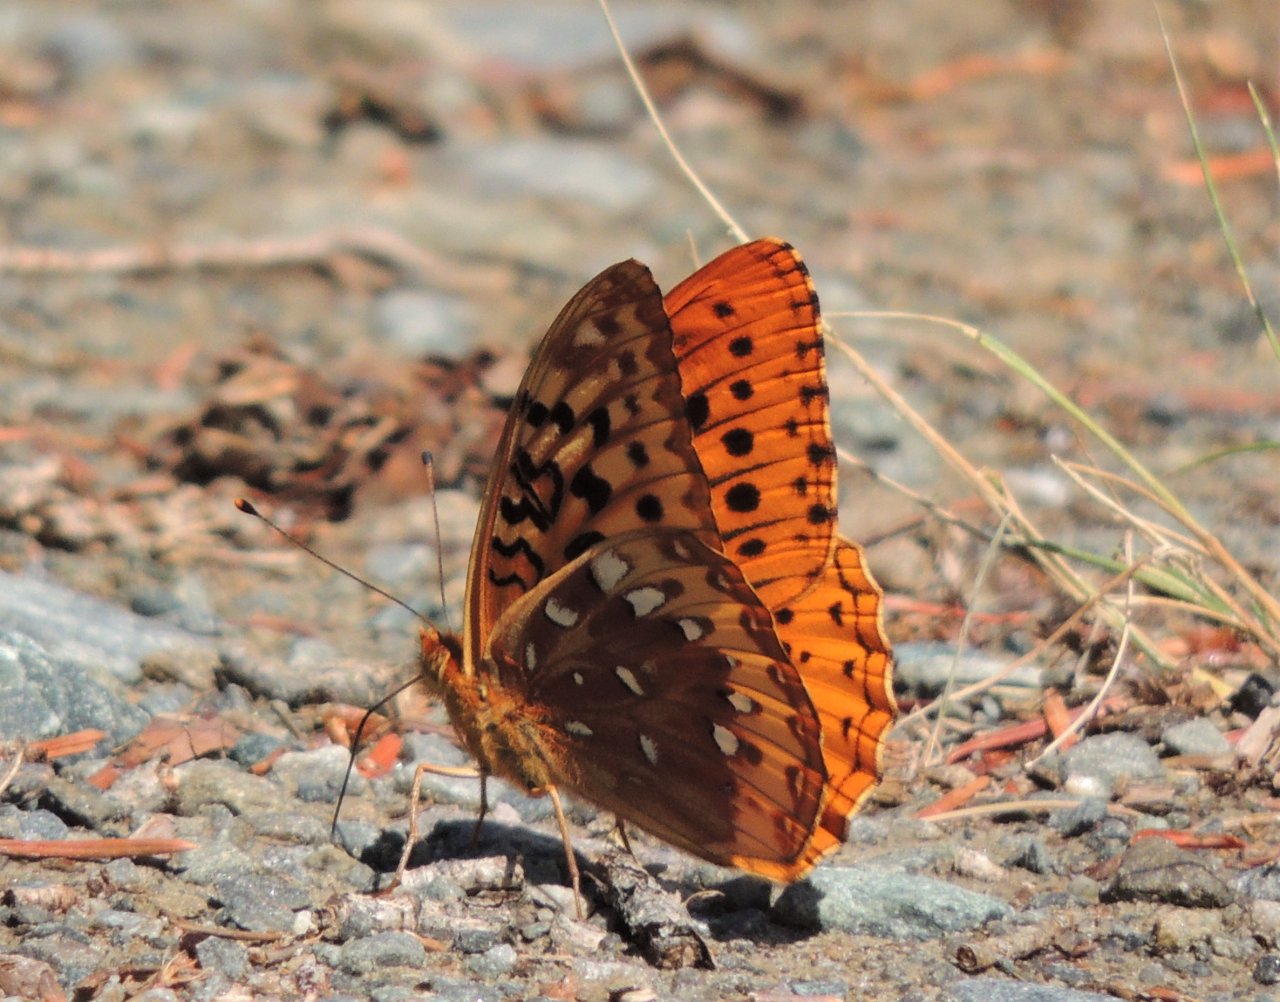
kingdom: Animalia
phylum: Arthropoda
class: Insecta
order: Lepidoptera
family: Nymphalidae
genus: Speyeria
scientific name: Speyeria cybele
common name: Great Spangled Fritillary
